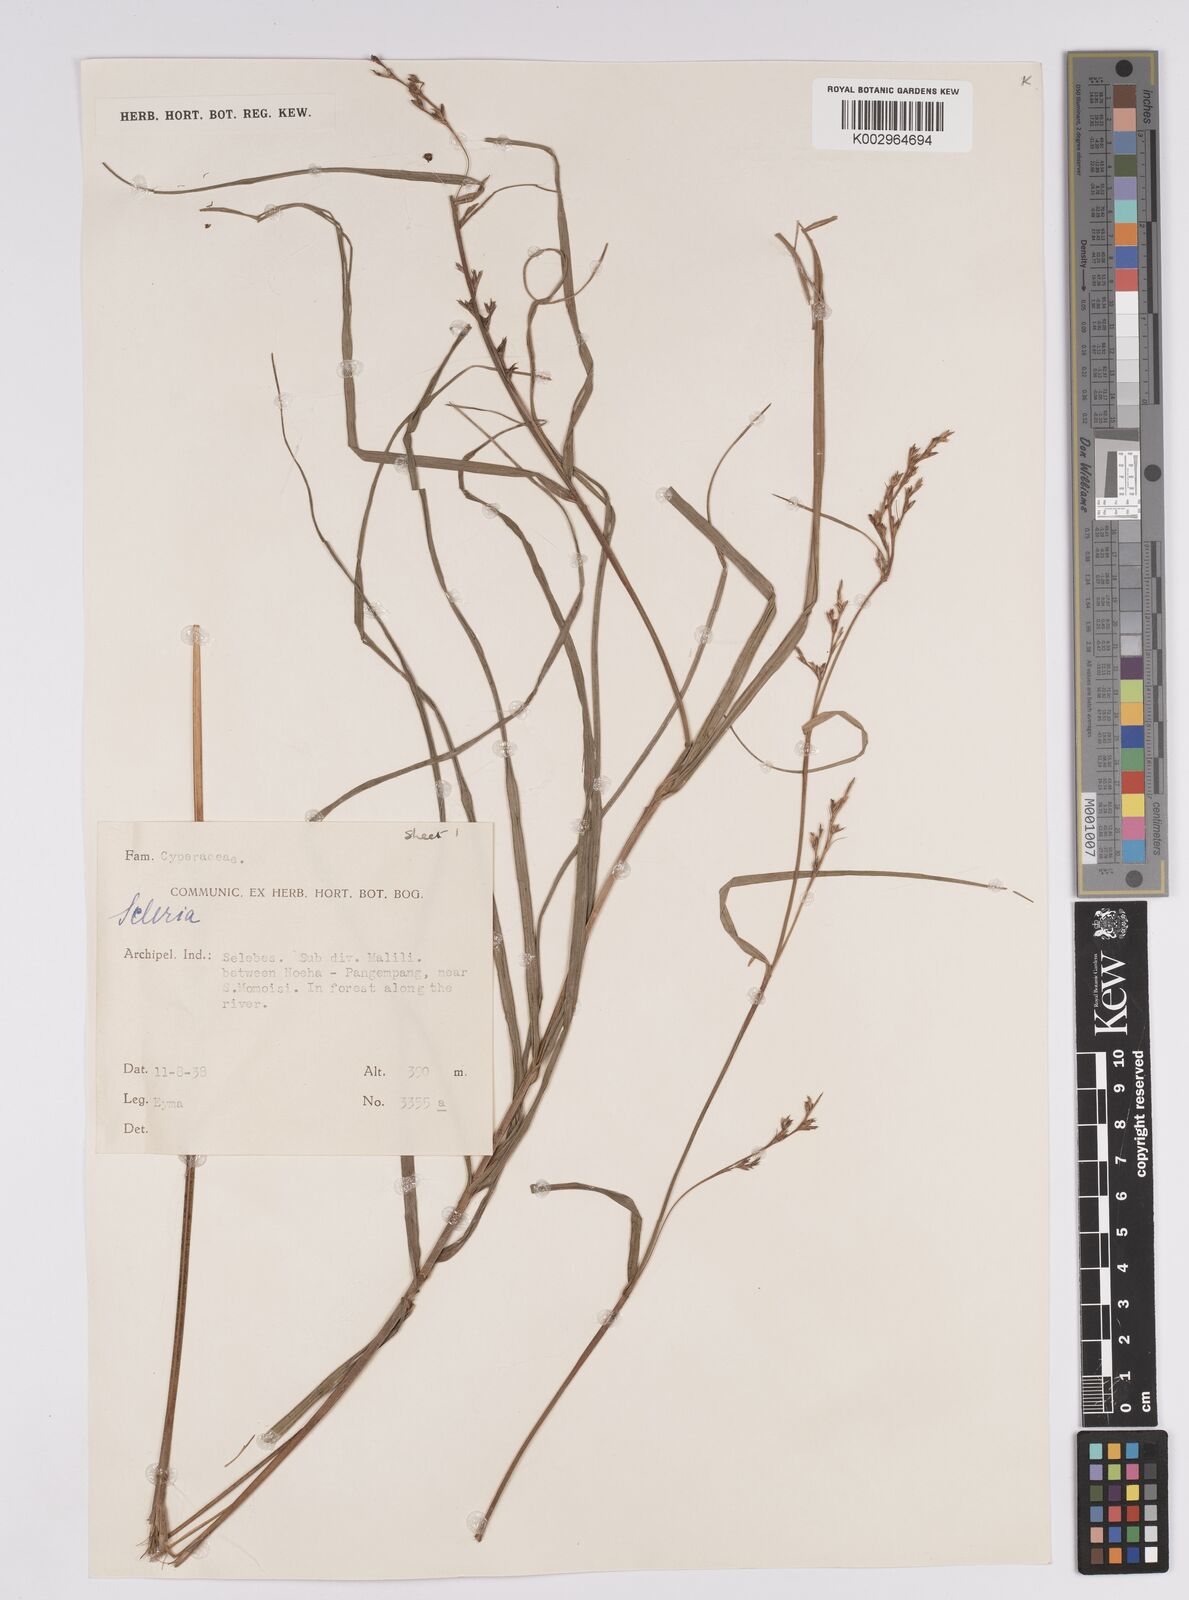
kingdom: Plantae
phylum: Tracheophyta
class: Liliopsida
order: Poales
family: Cyperaceae
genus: Scleria
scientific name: Scleria
